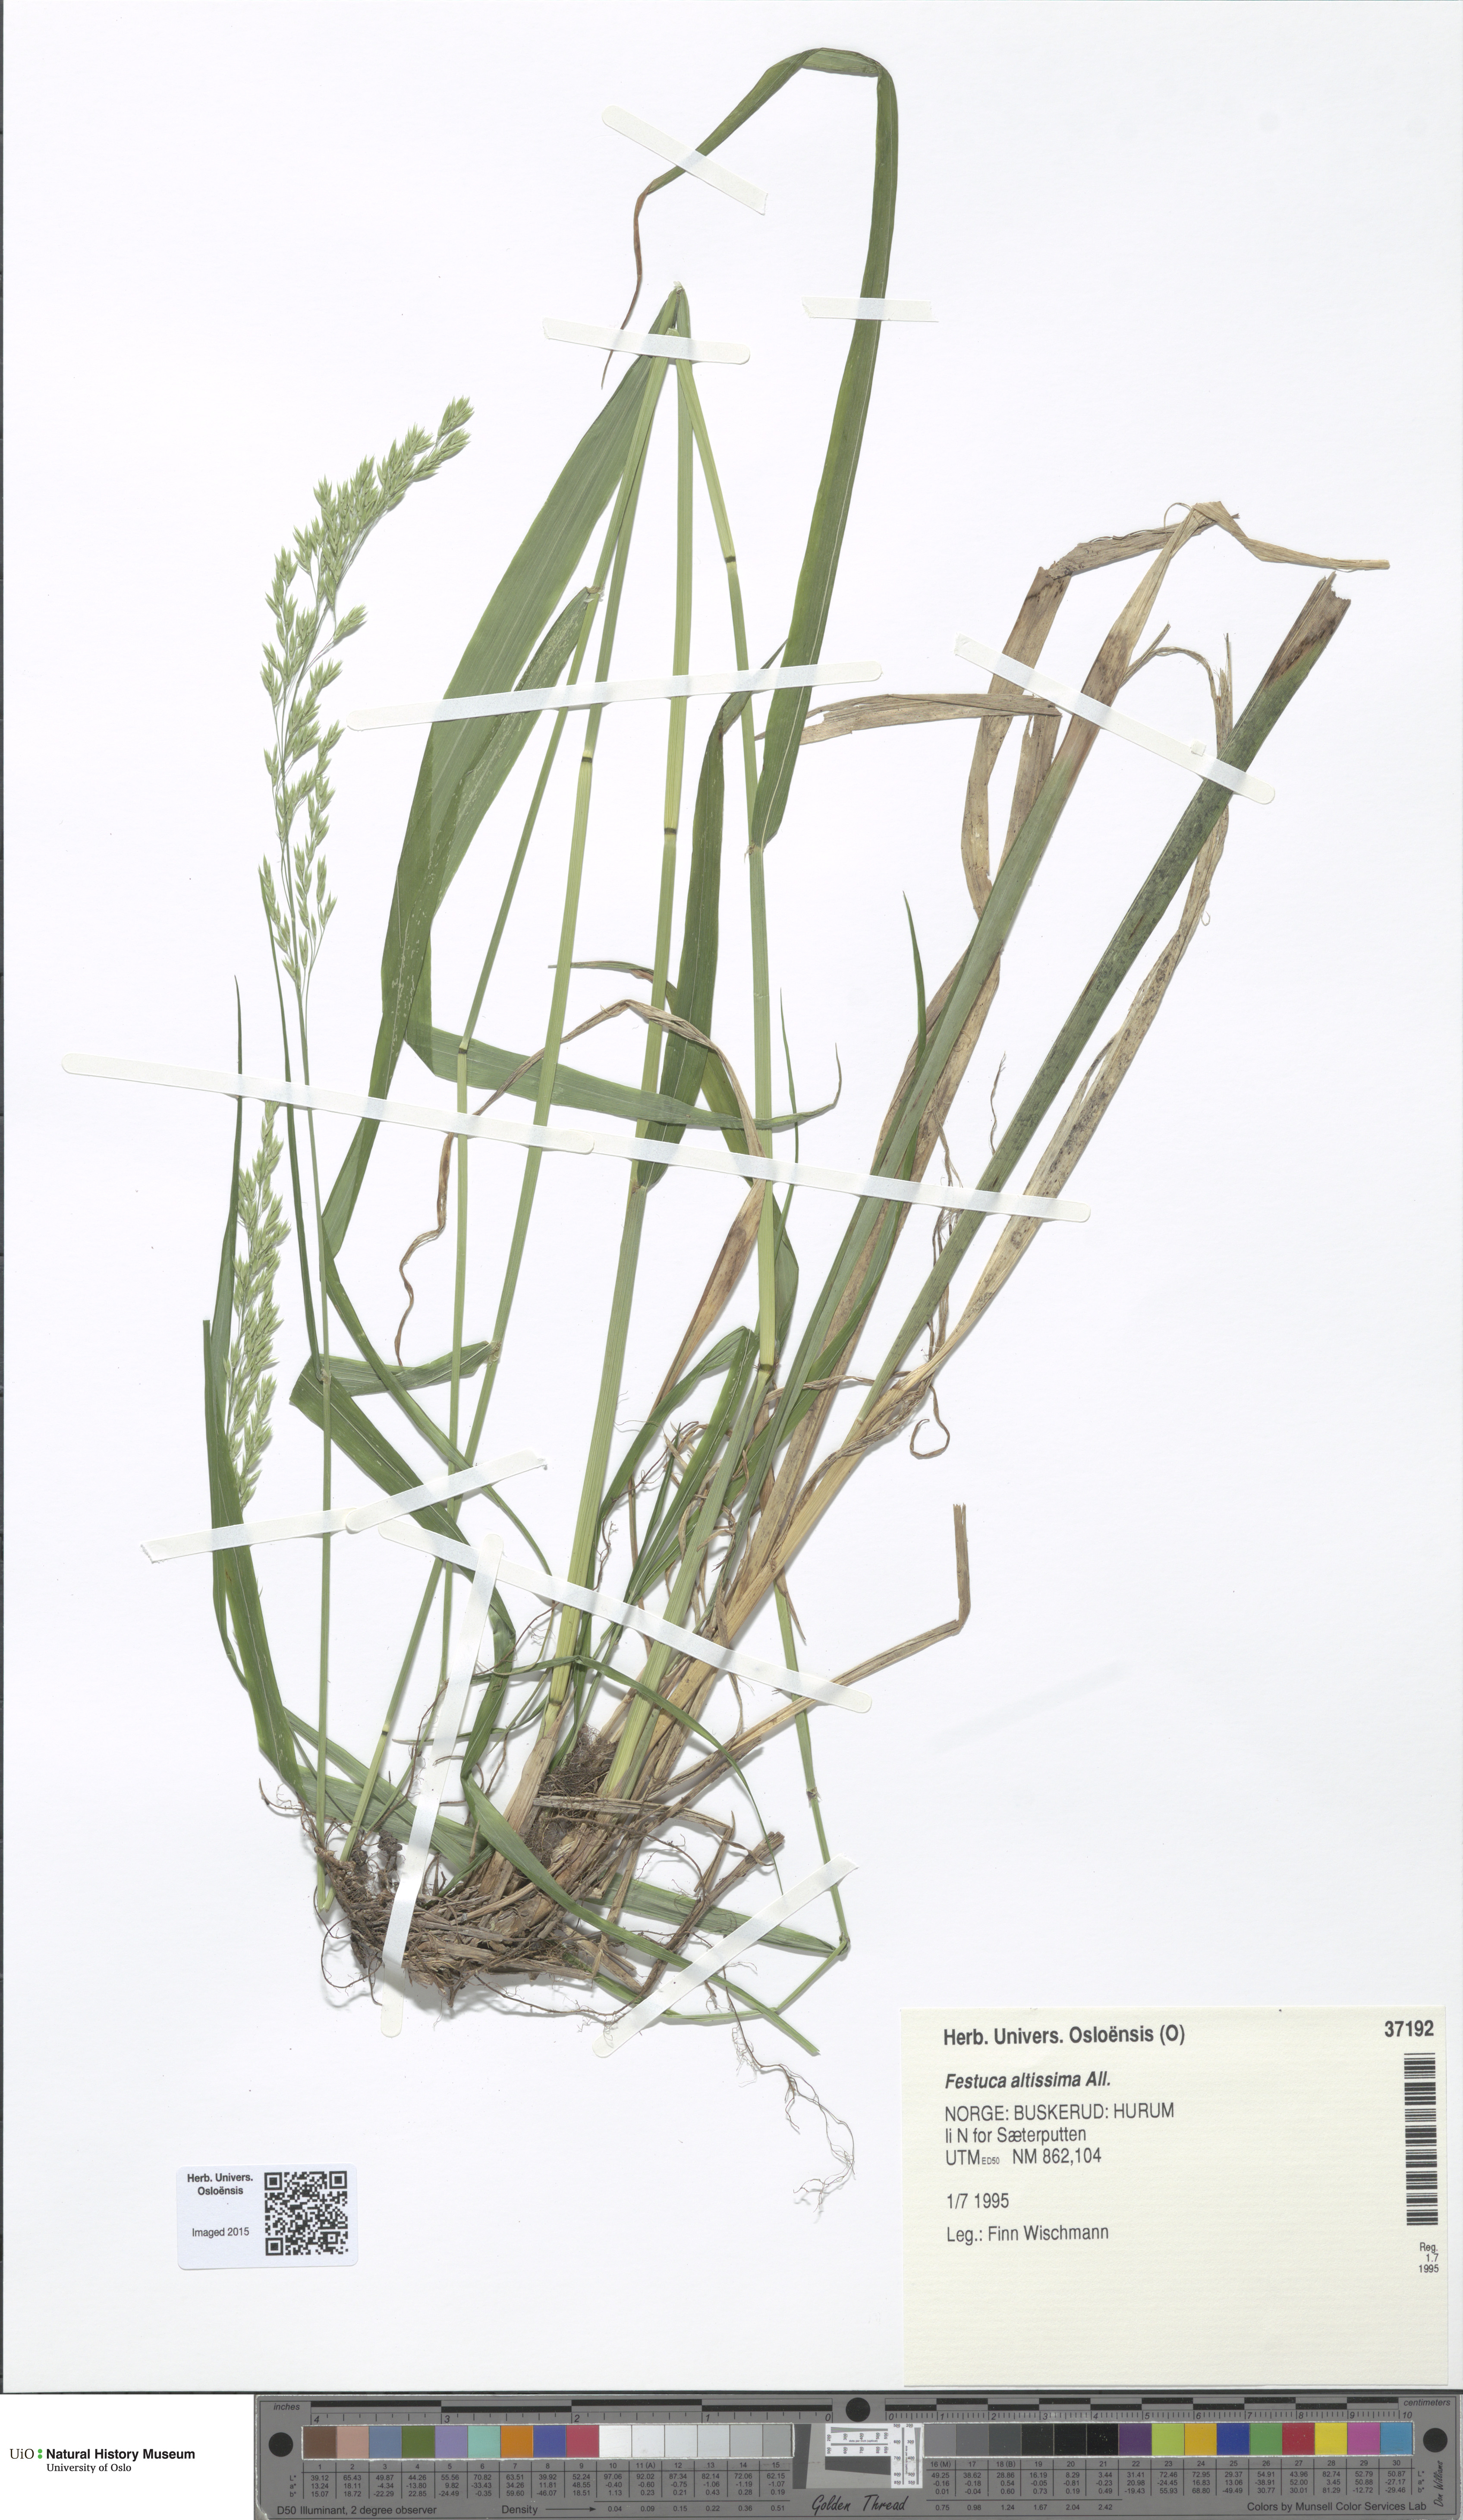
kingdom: Plantae
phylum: Tracheophyta
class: Liliopsida
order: Poales
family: Poaceae
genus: Festuca
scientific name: Festuca altissima
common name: Wood fescue
